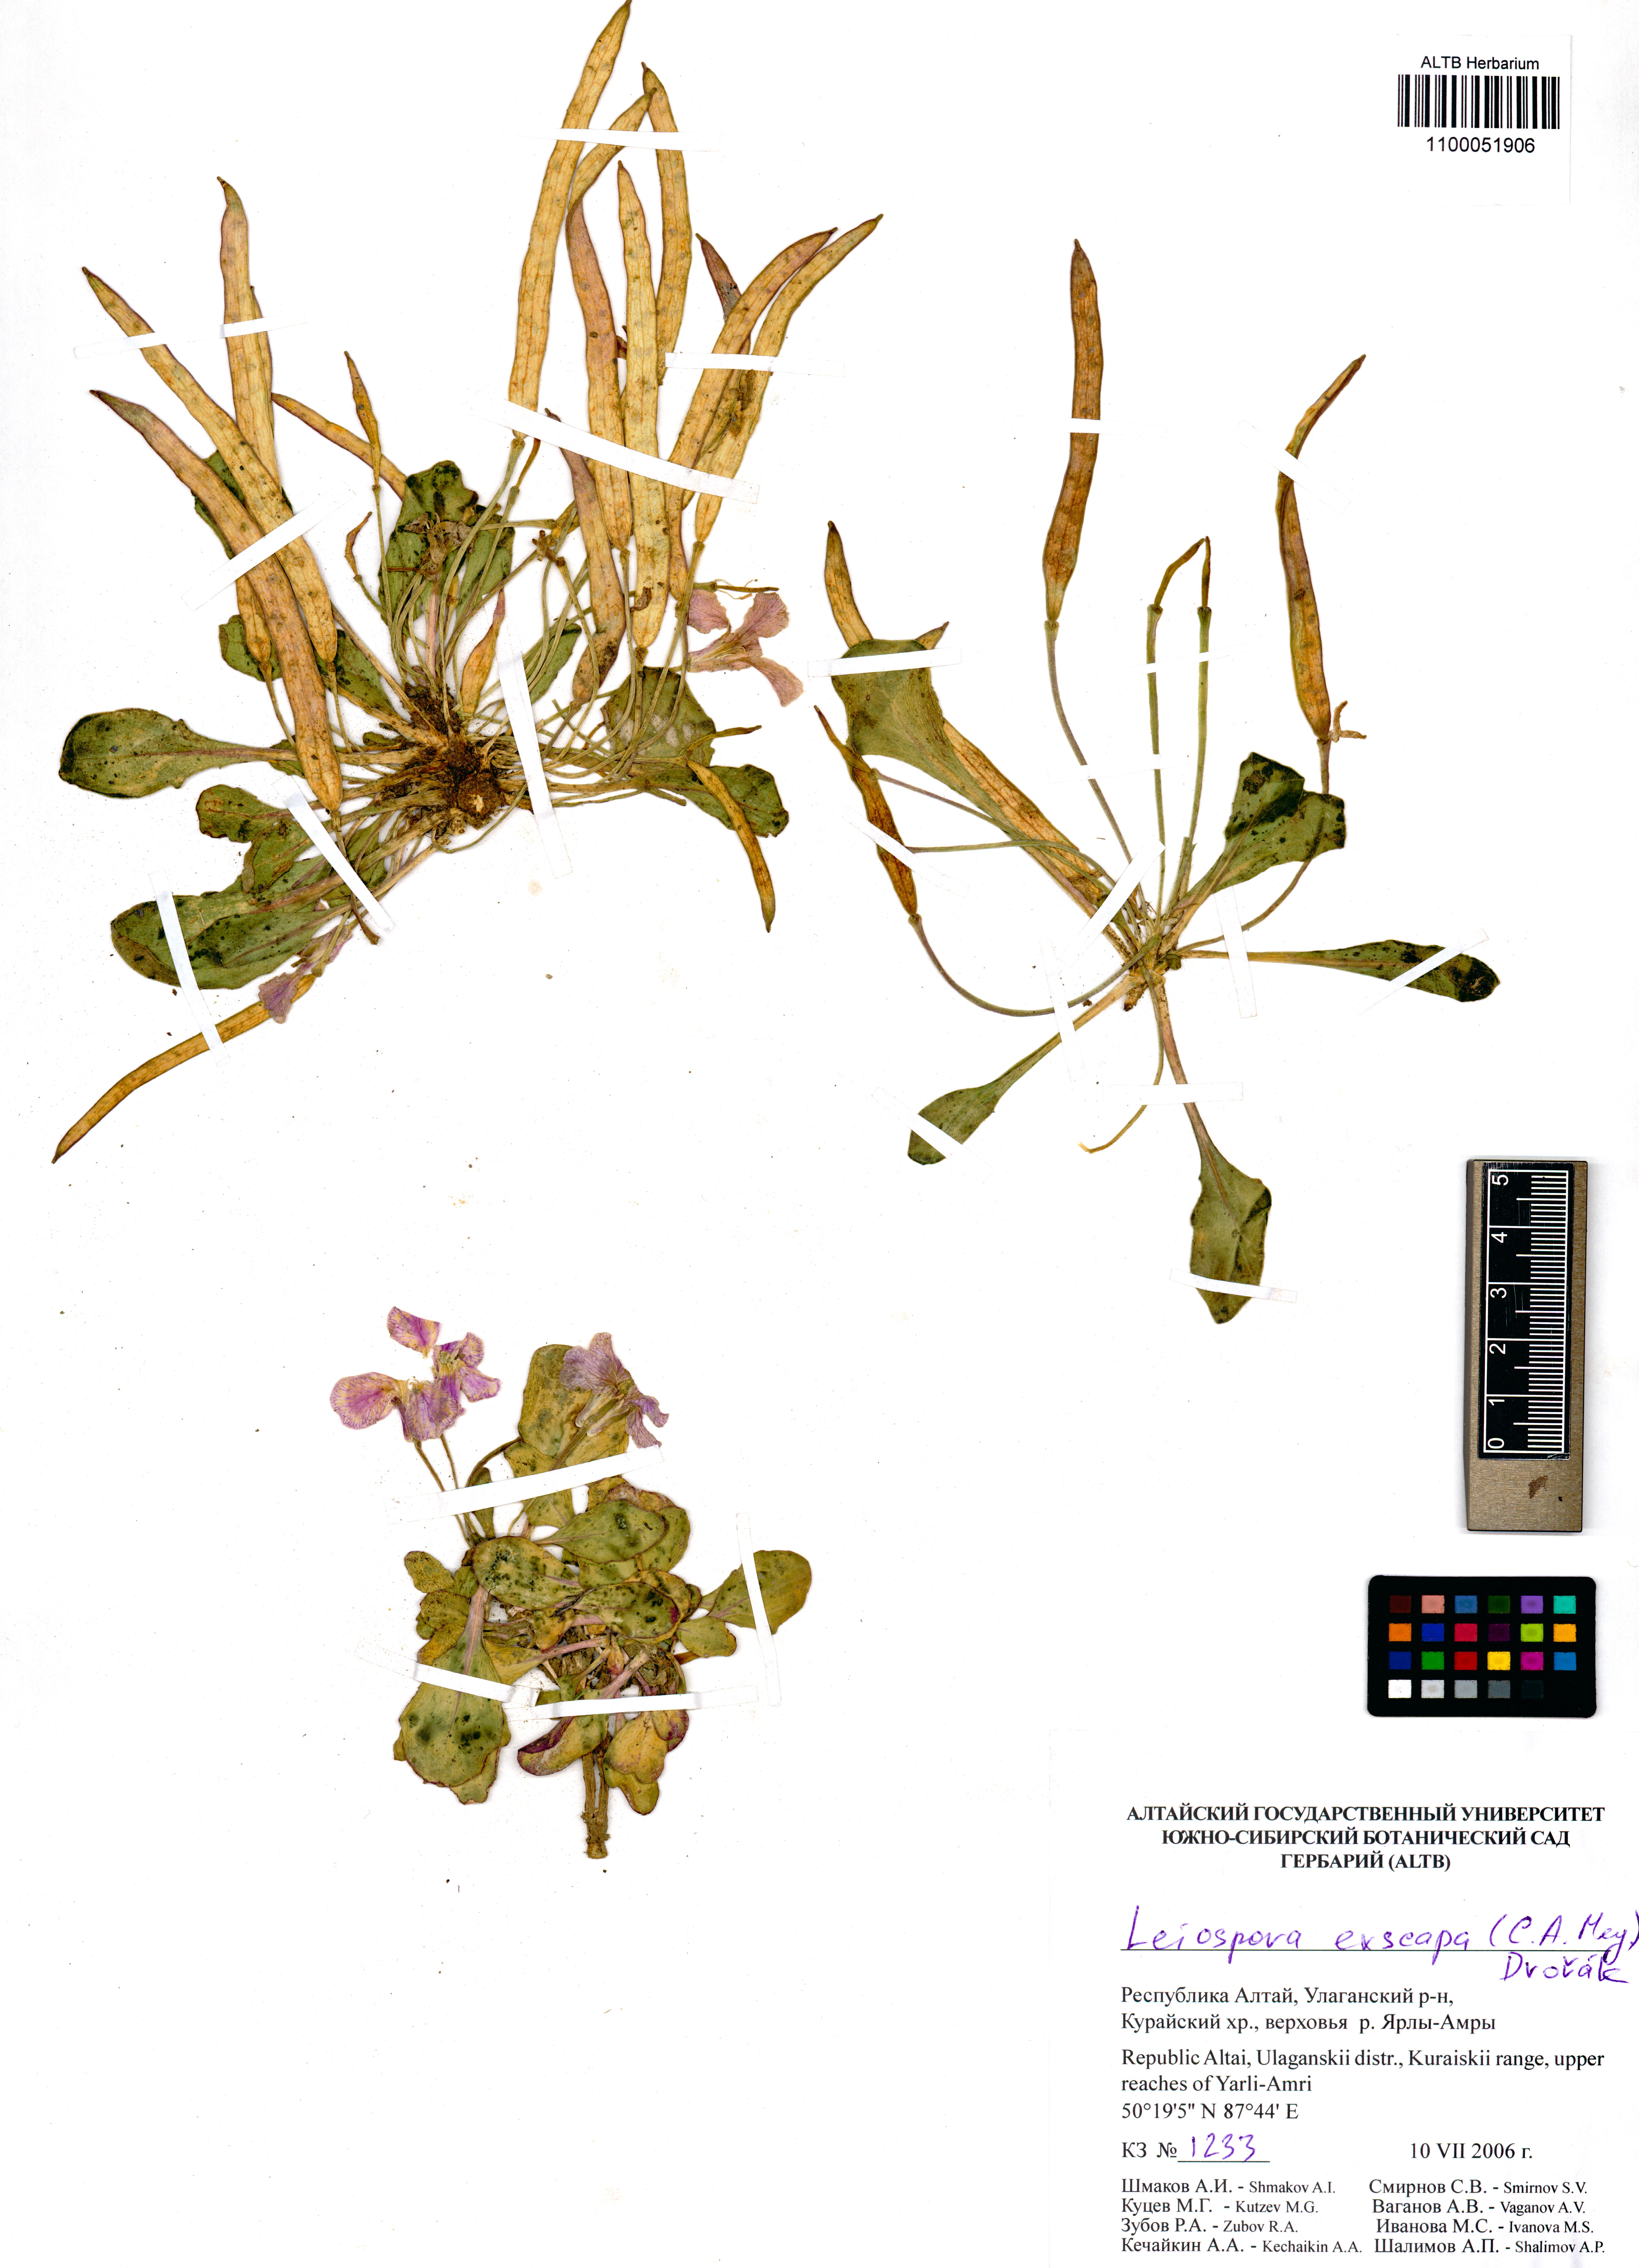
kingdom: Plantae
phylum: Tracheophyta
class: Magnoliopsida
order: Brassicales
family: Brassicaceae
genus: Leiospora
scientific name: Leiospora exscapa
